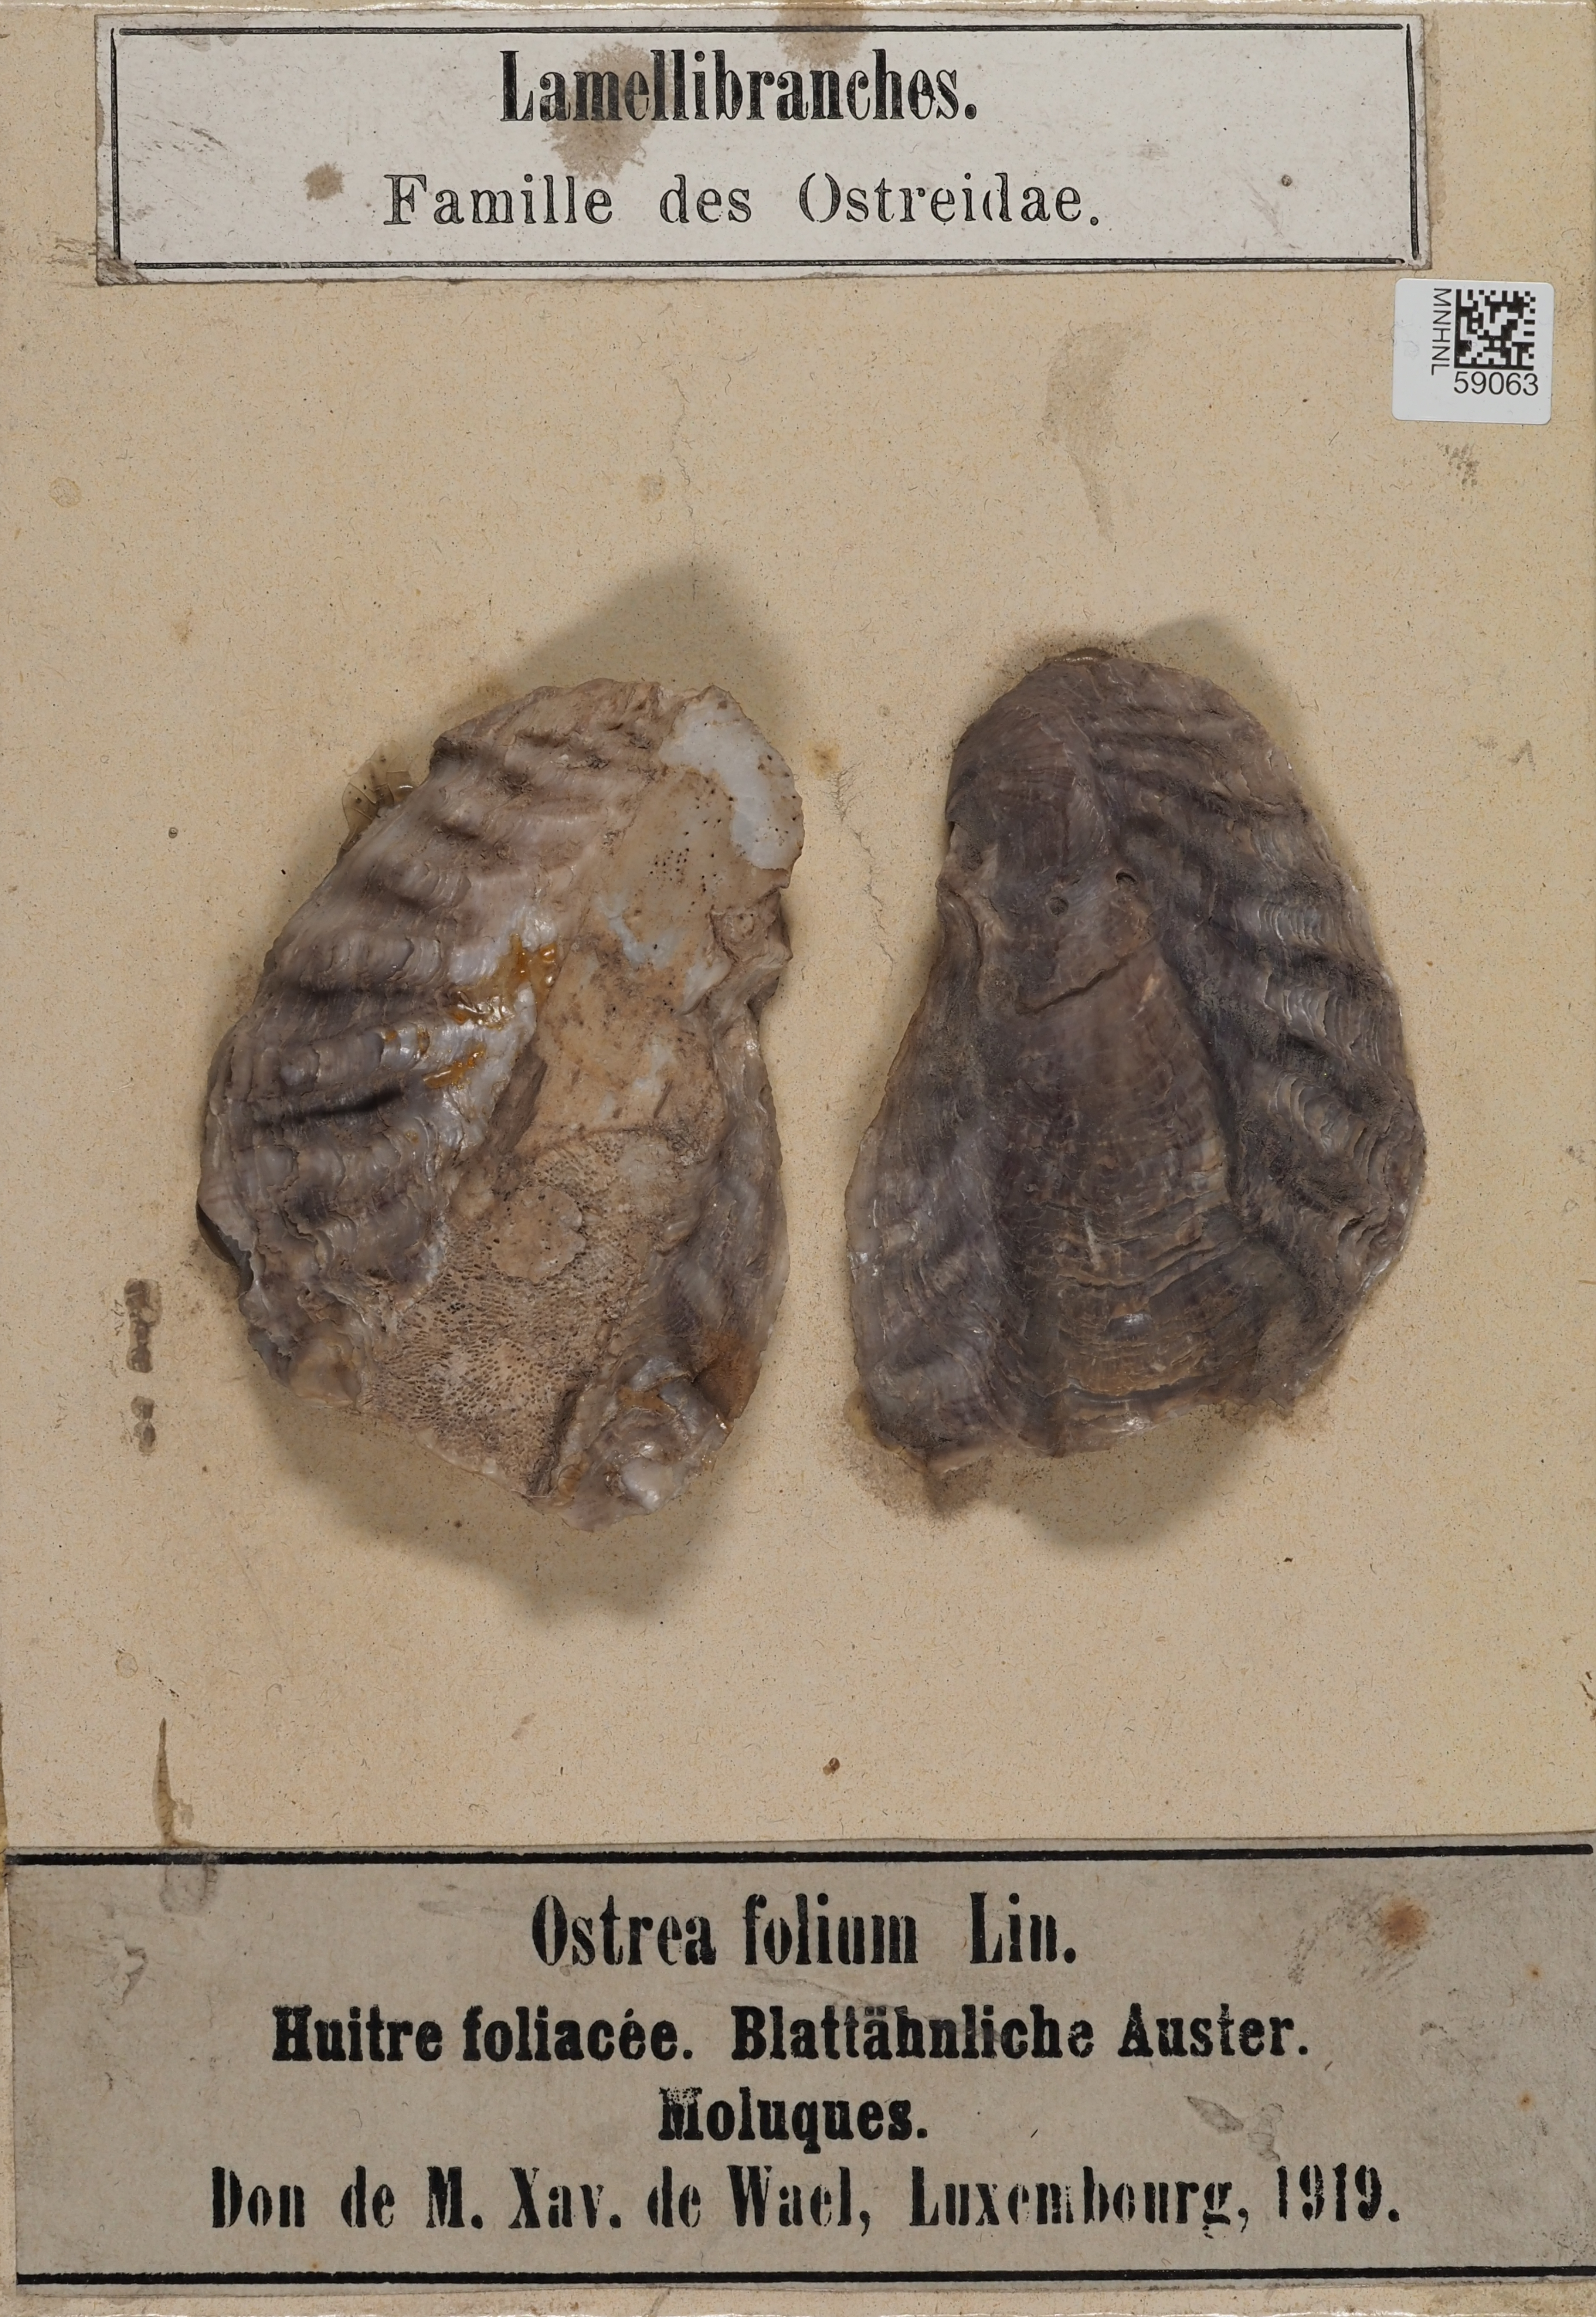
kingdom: Animalia
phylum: Mollusca
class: Bivalvia
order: Ostreida
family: Ostreidae
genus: Dendostrea
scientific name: Dendostrea folium
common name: Leaf oyster
